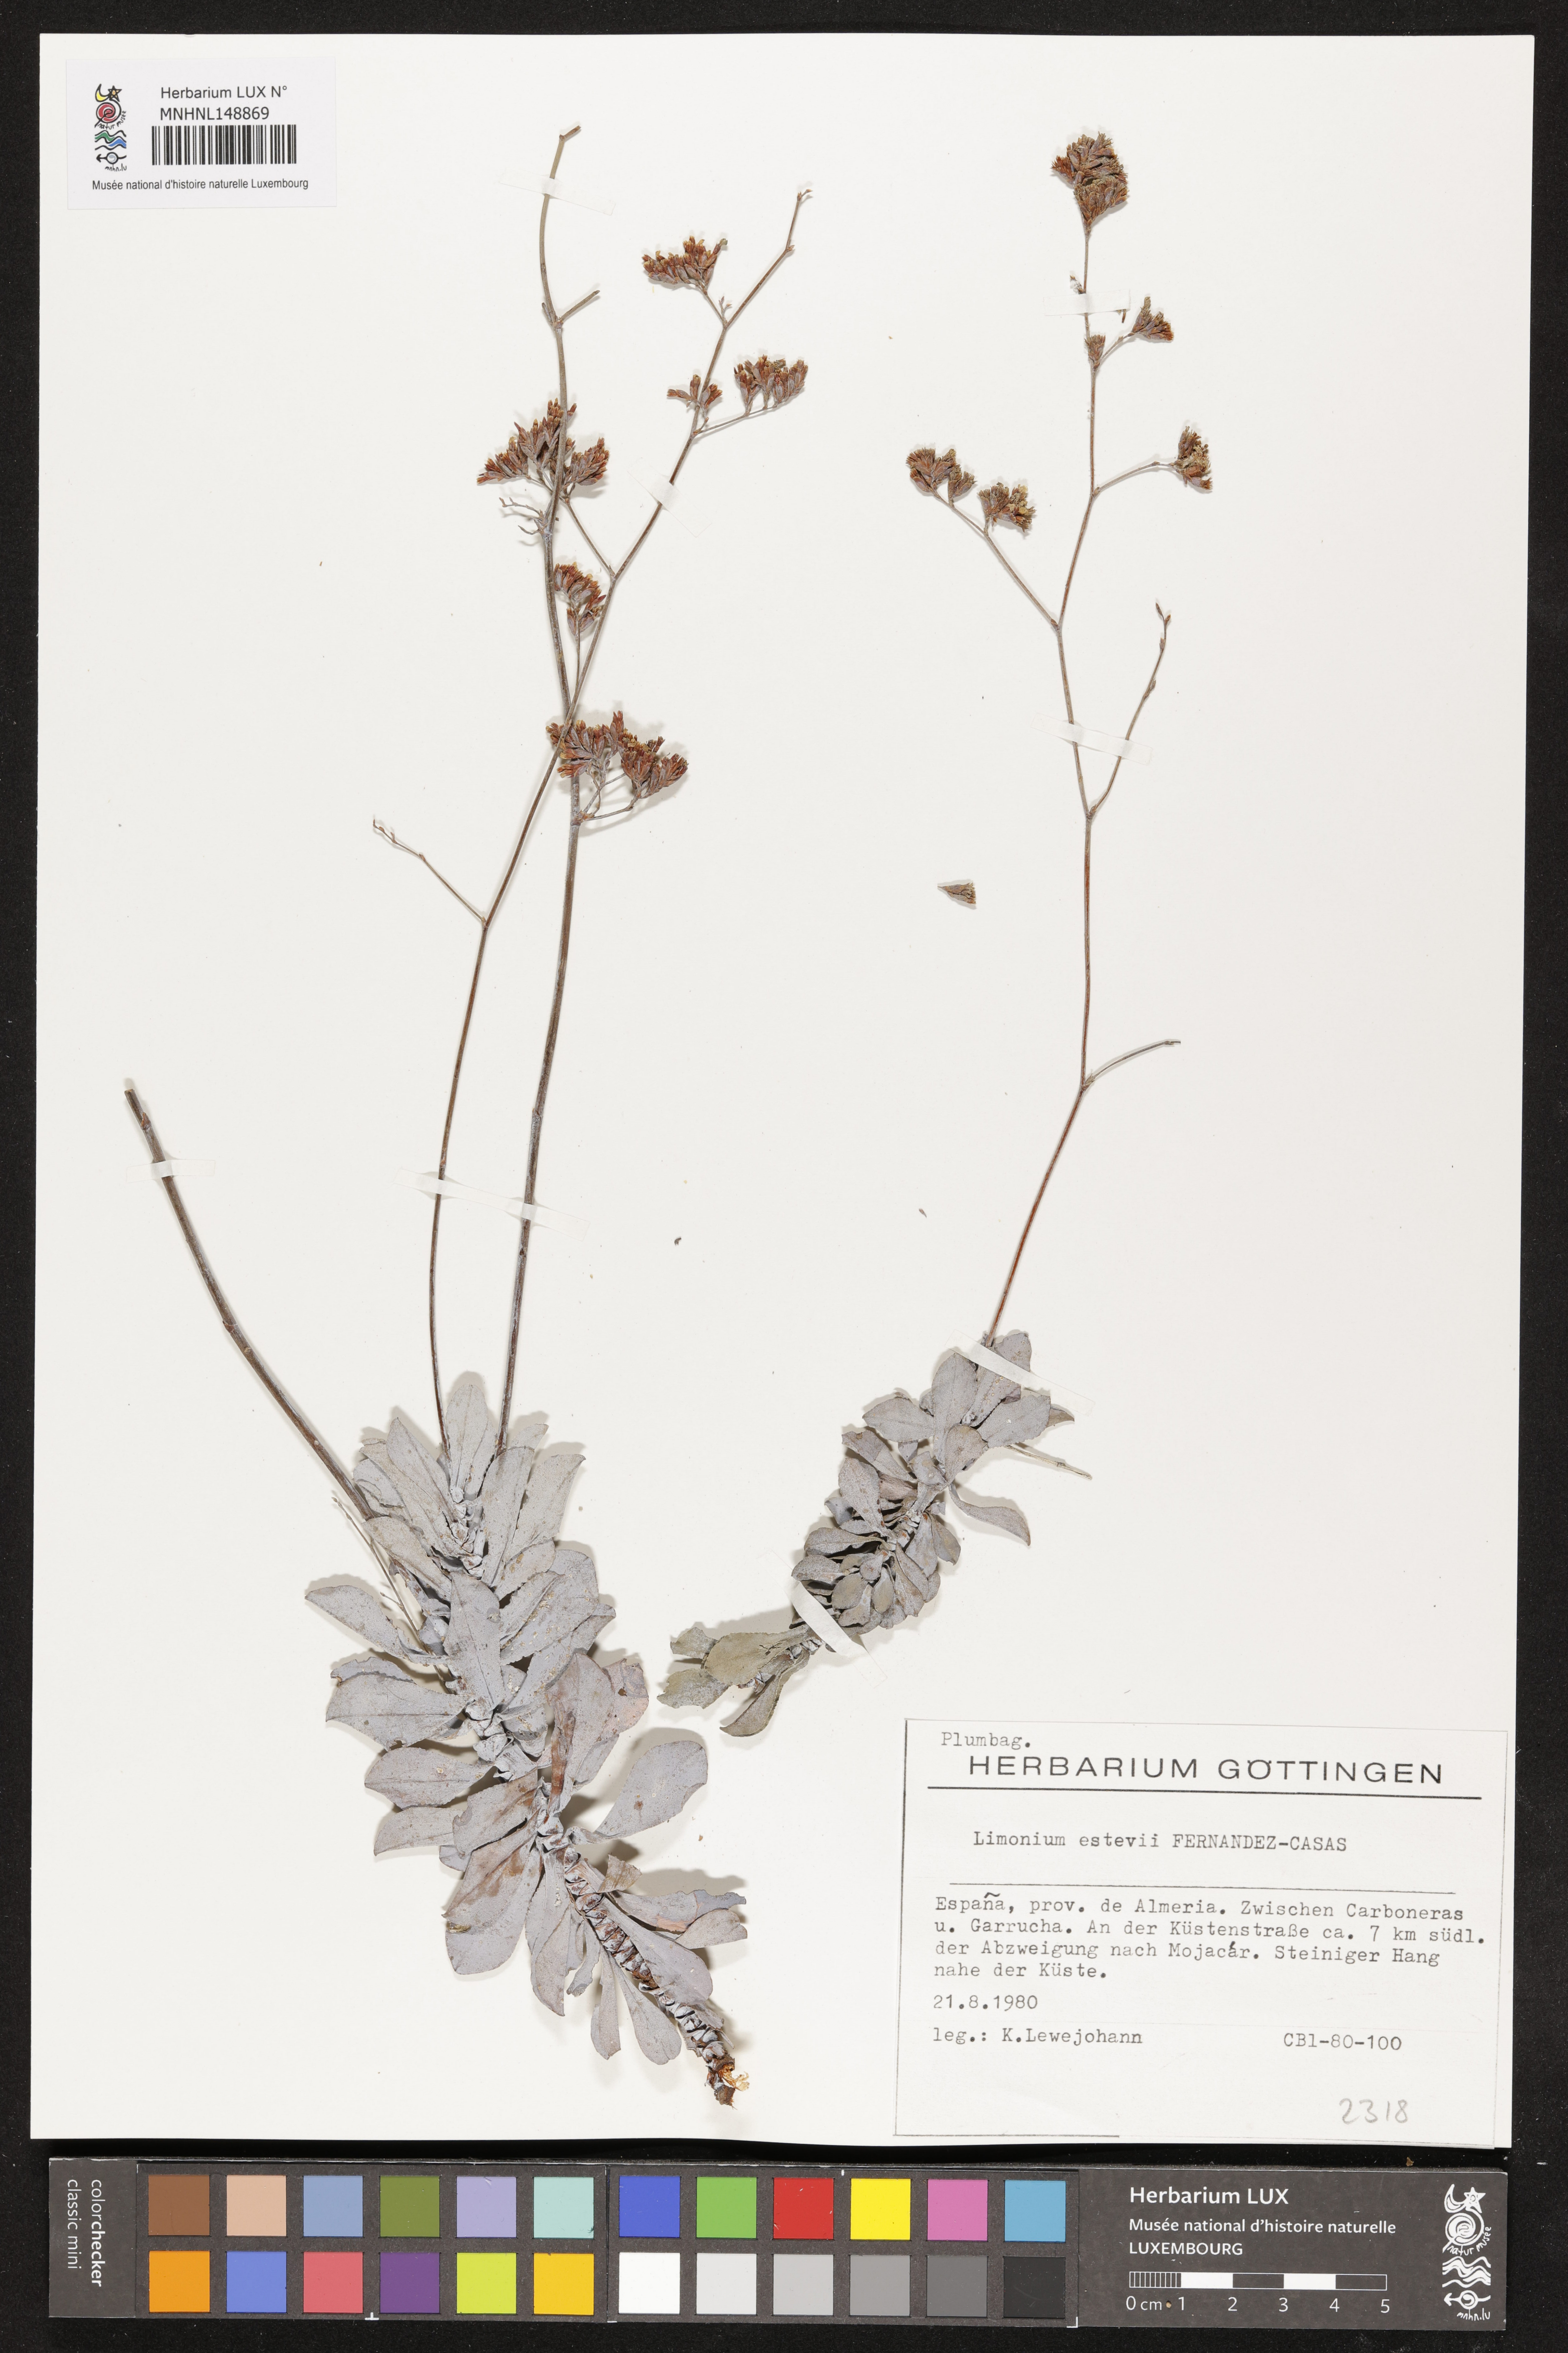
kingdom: Plantae
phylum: Tracheophyta
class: Magnoliopsida
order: Caryophyllales
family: Plumbaginaceae
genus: Limonium
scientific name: Limonium estevei
